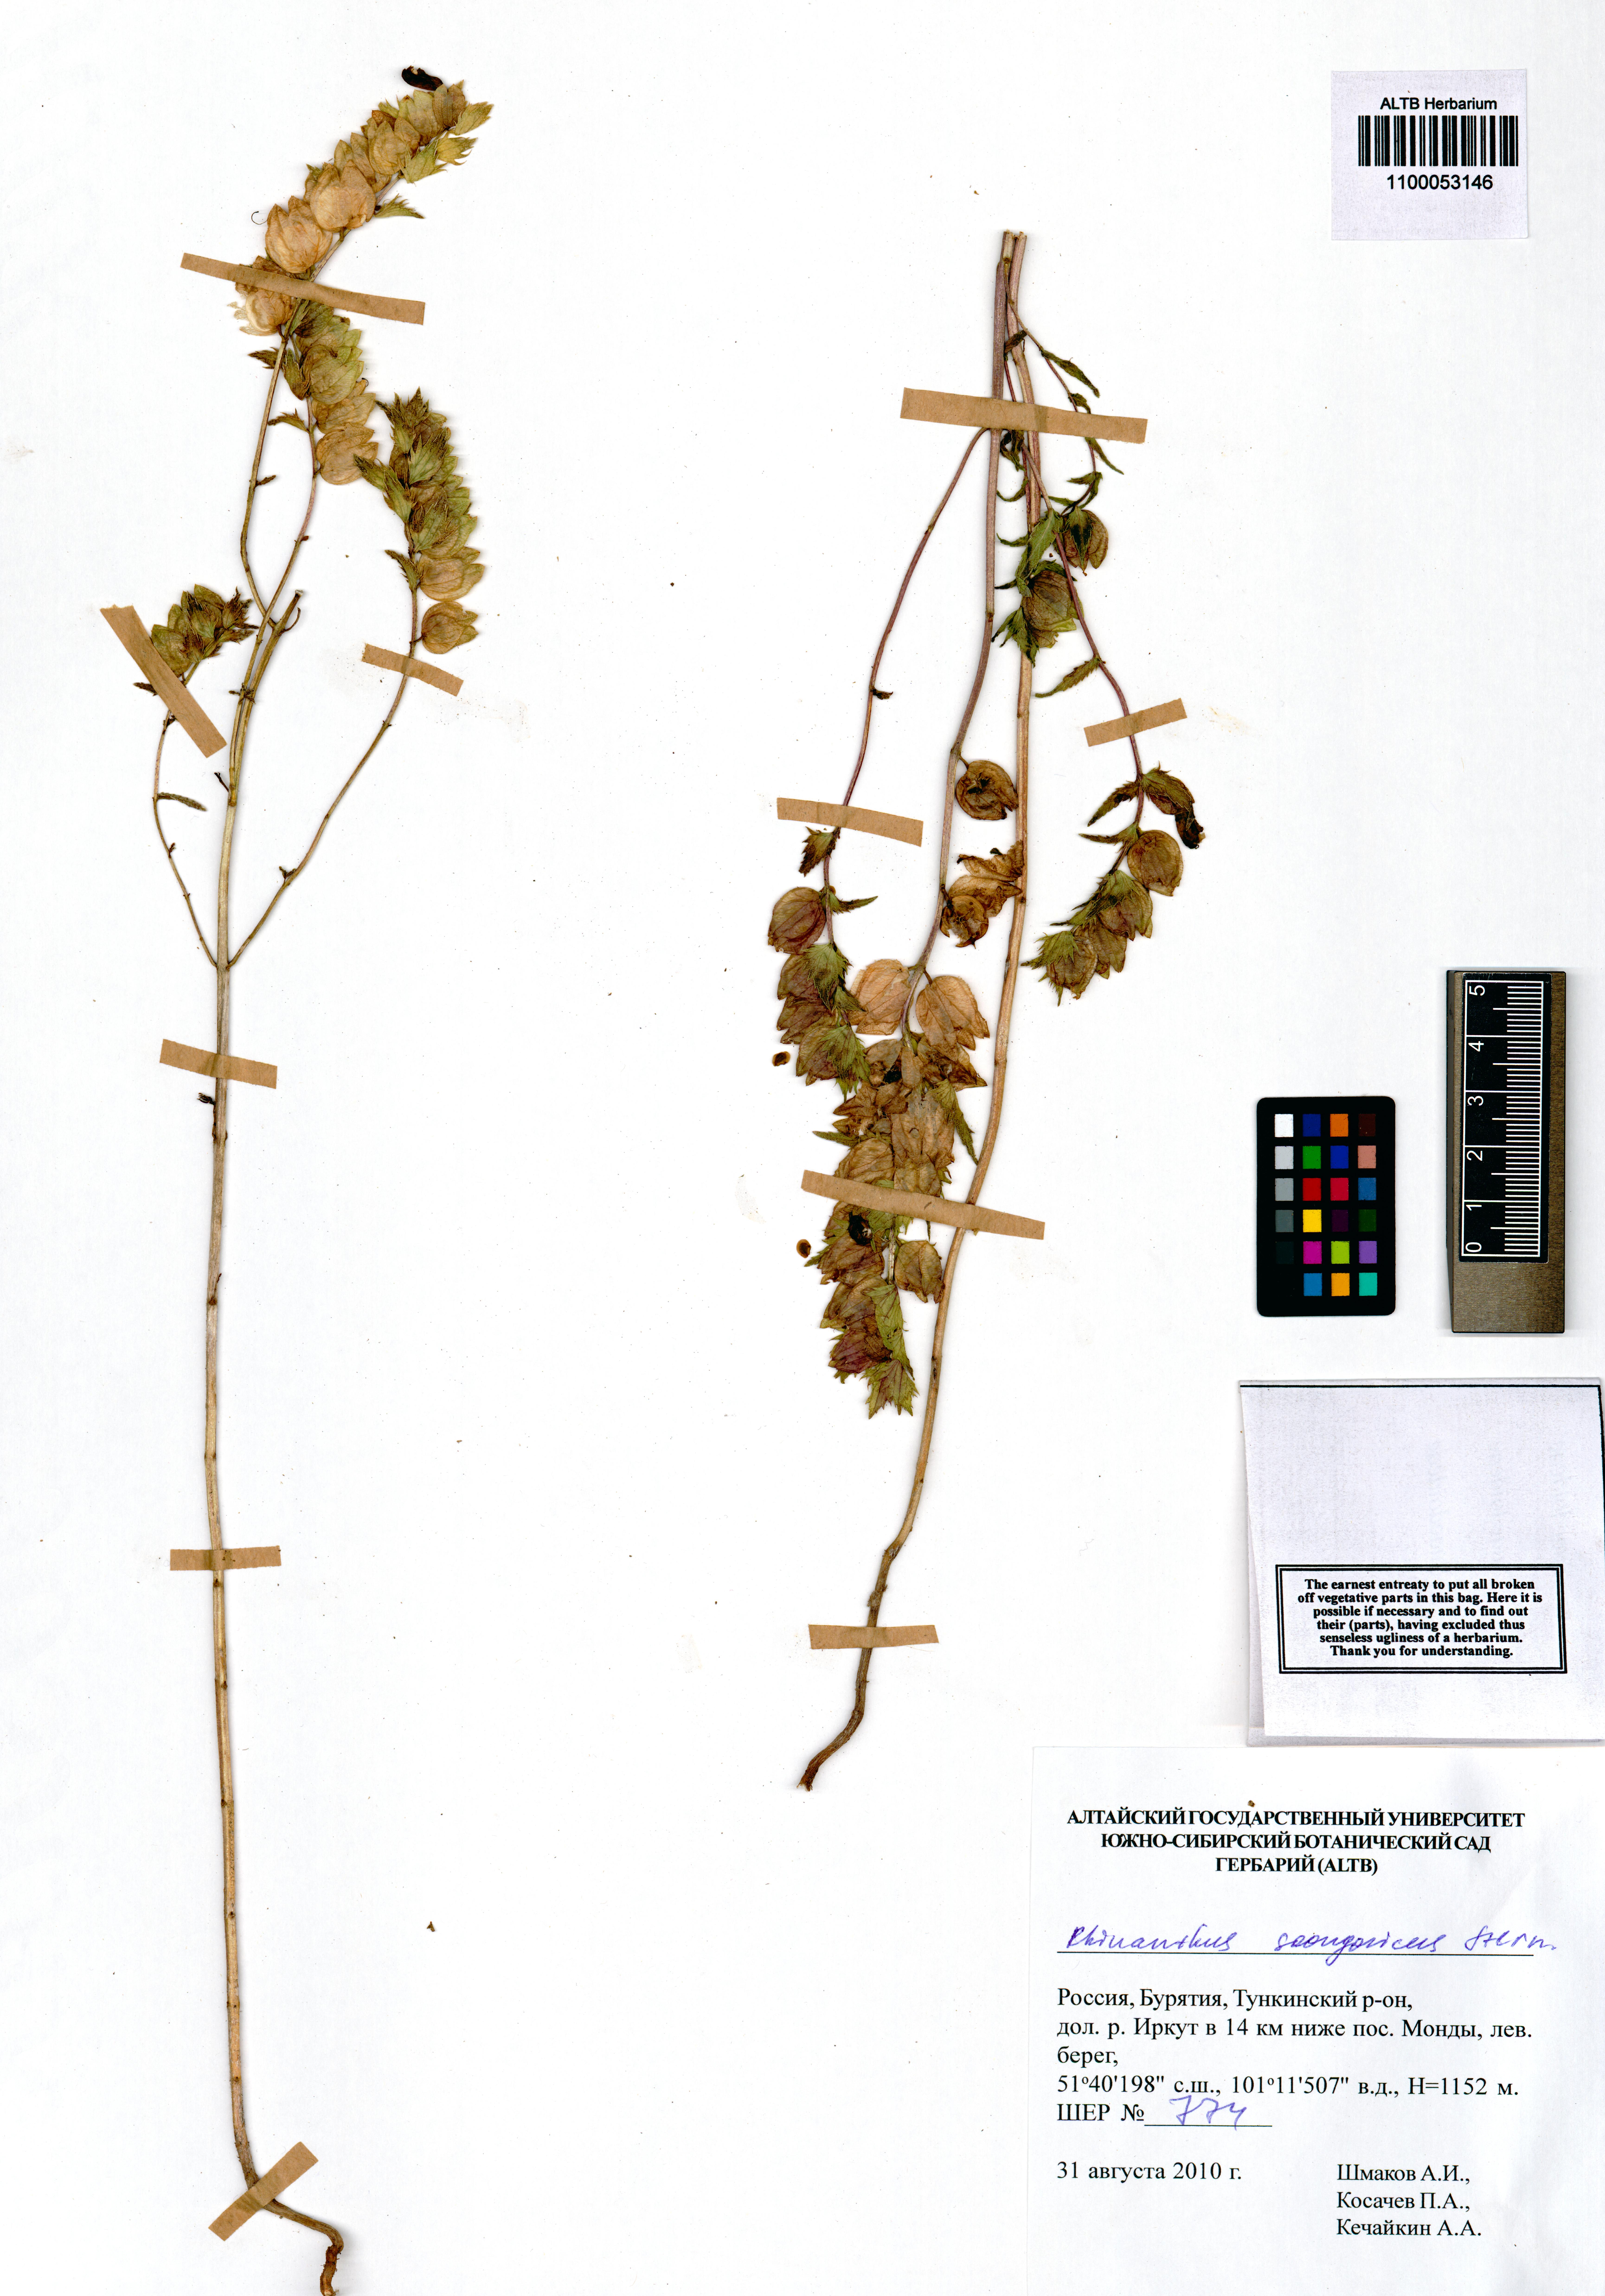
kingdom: Plantae
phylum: Tracheophyta
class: Magnoliopsida
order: Lamiales
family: Orobanchaceae
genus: Rhinanthus
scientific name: Rhinanthus songaricus
